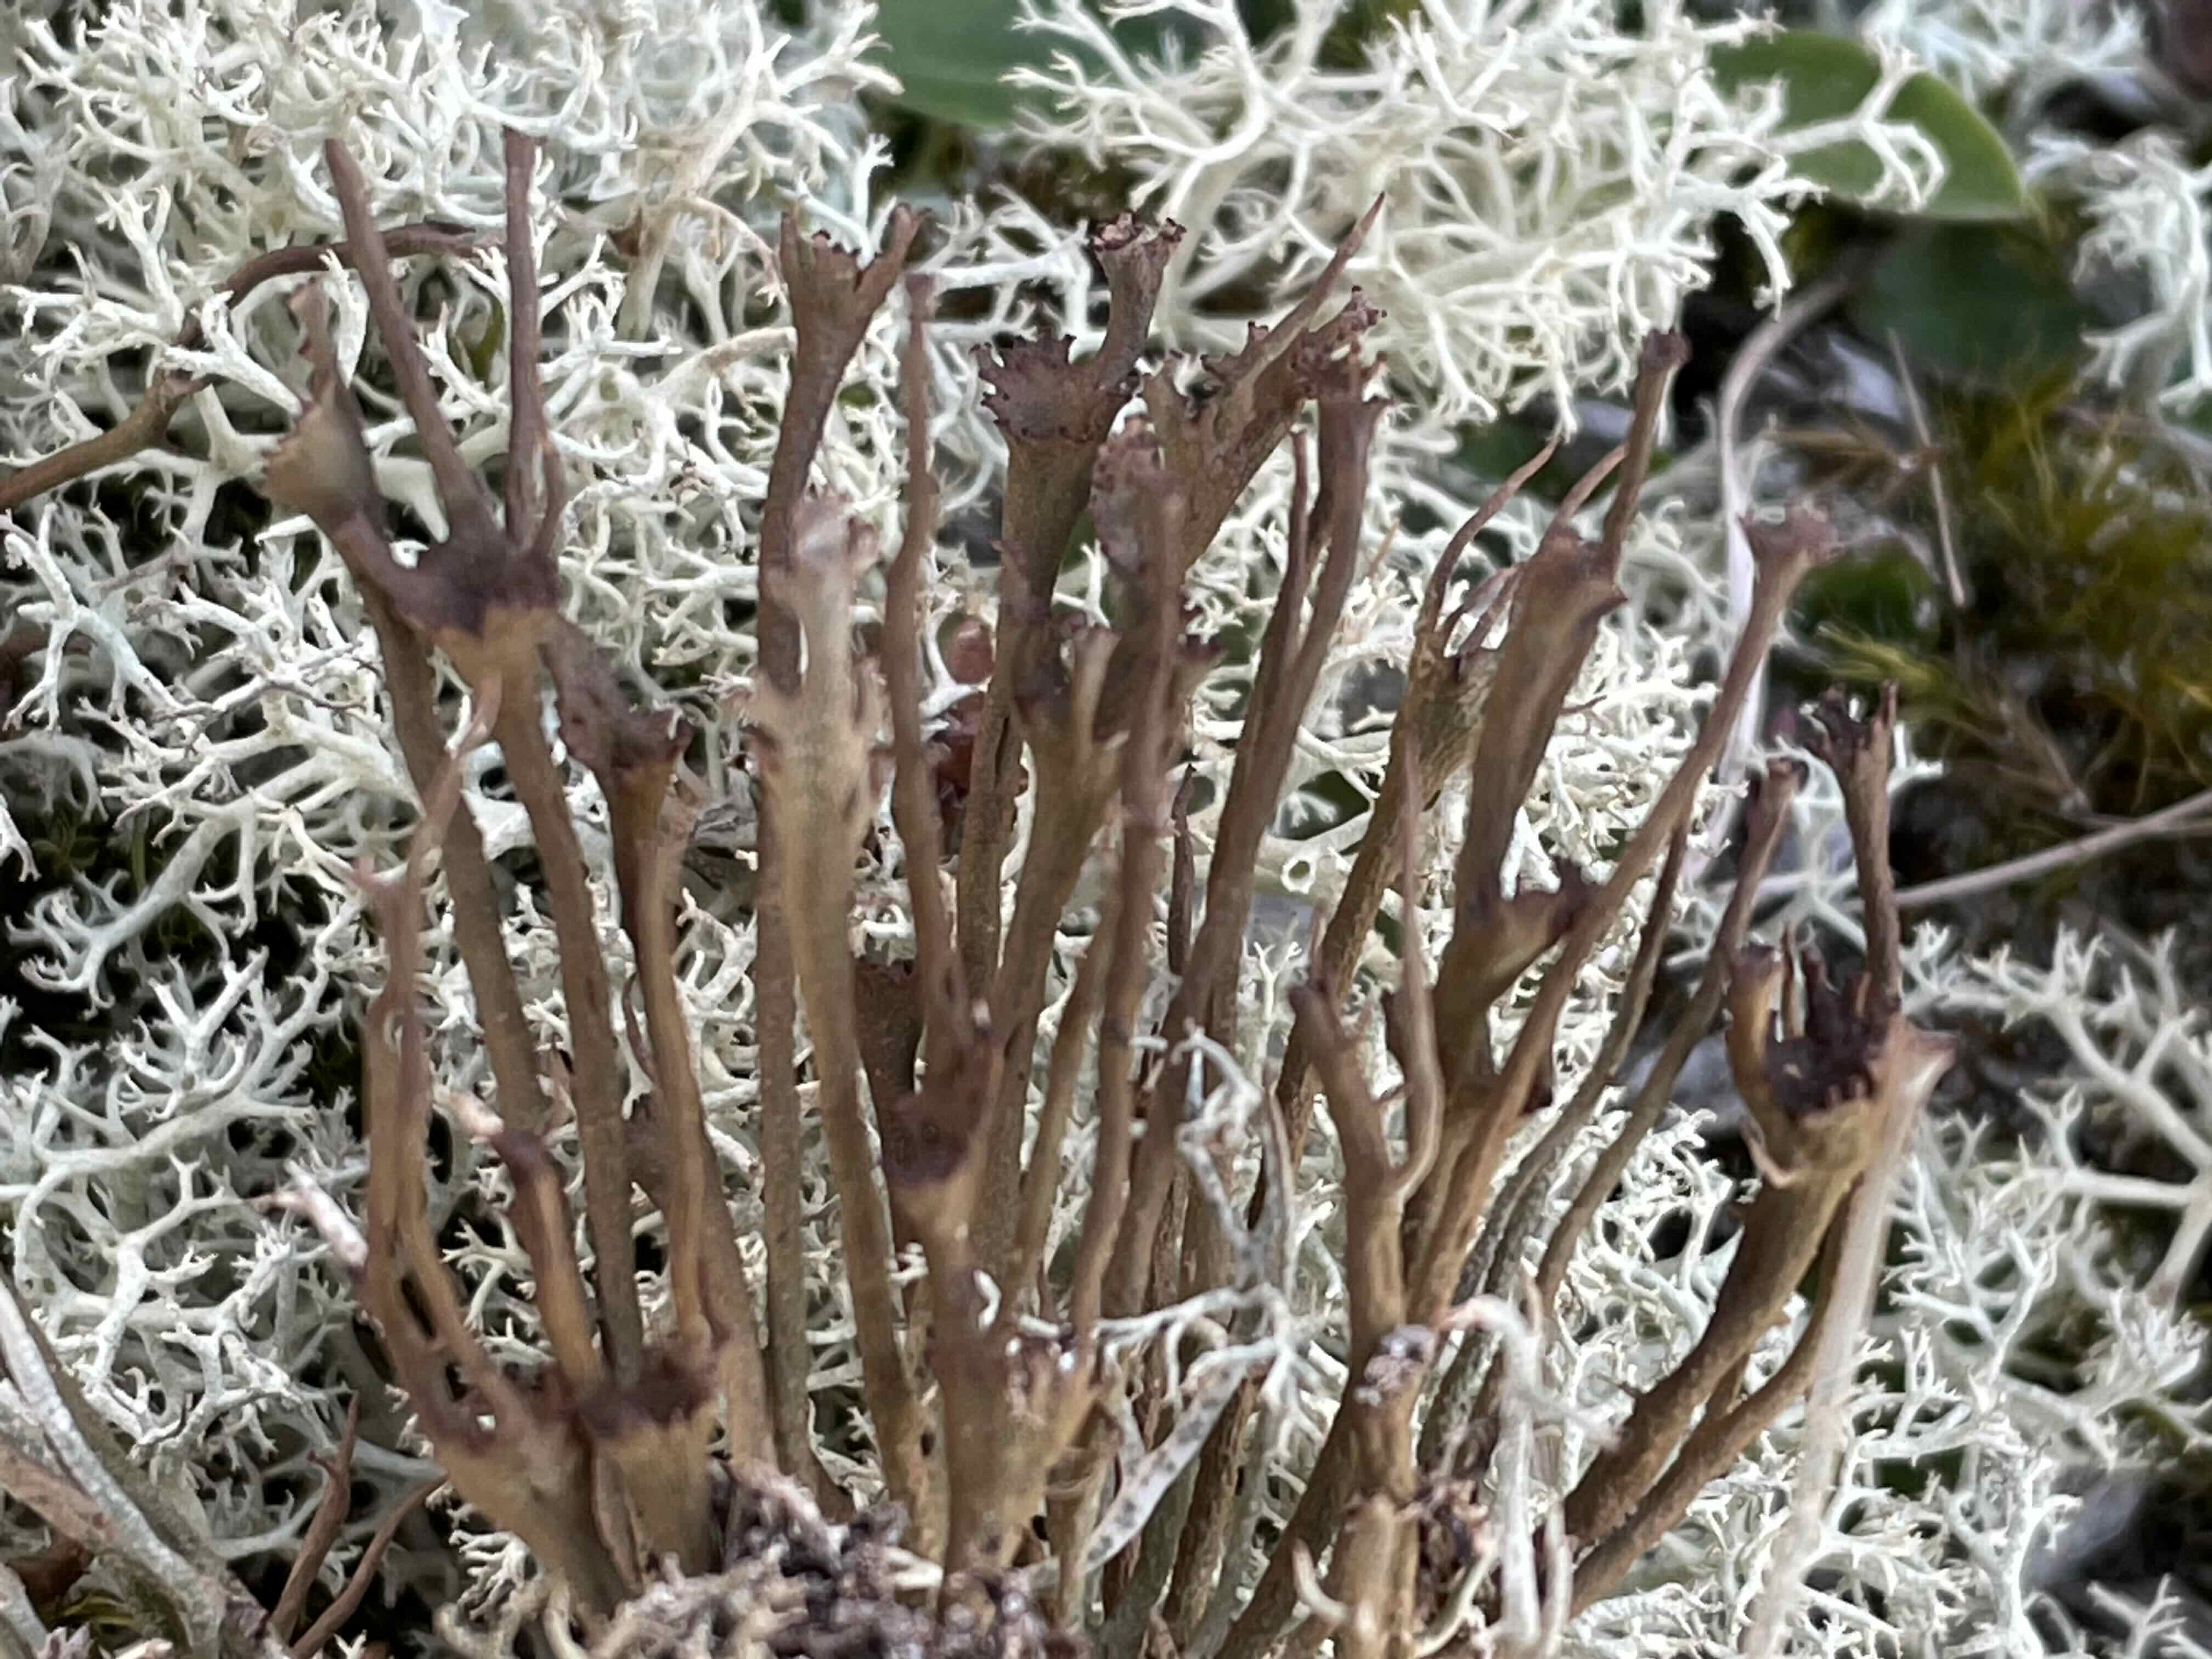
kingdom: Fungi
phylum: Ascomycota
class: Lecanoromycetes
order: Lecanorales
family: Cladoniaceae
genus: Cladonia
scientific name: Cladonia gracilis
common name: slank bægerlav
